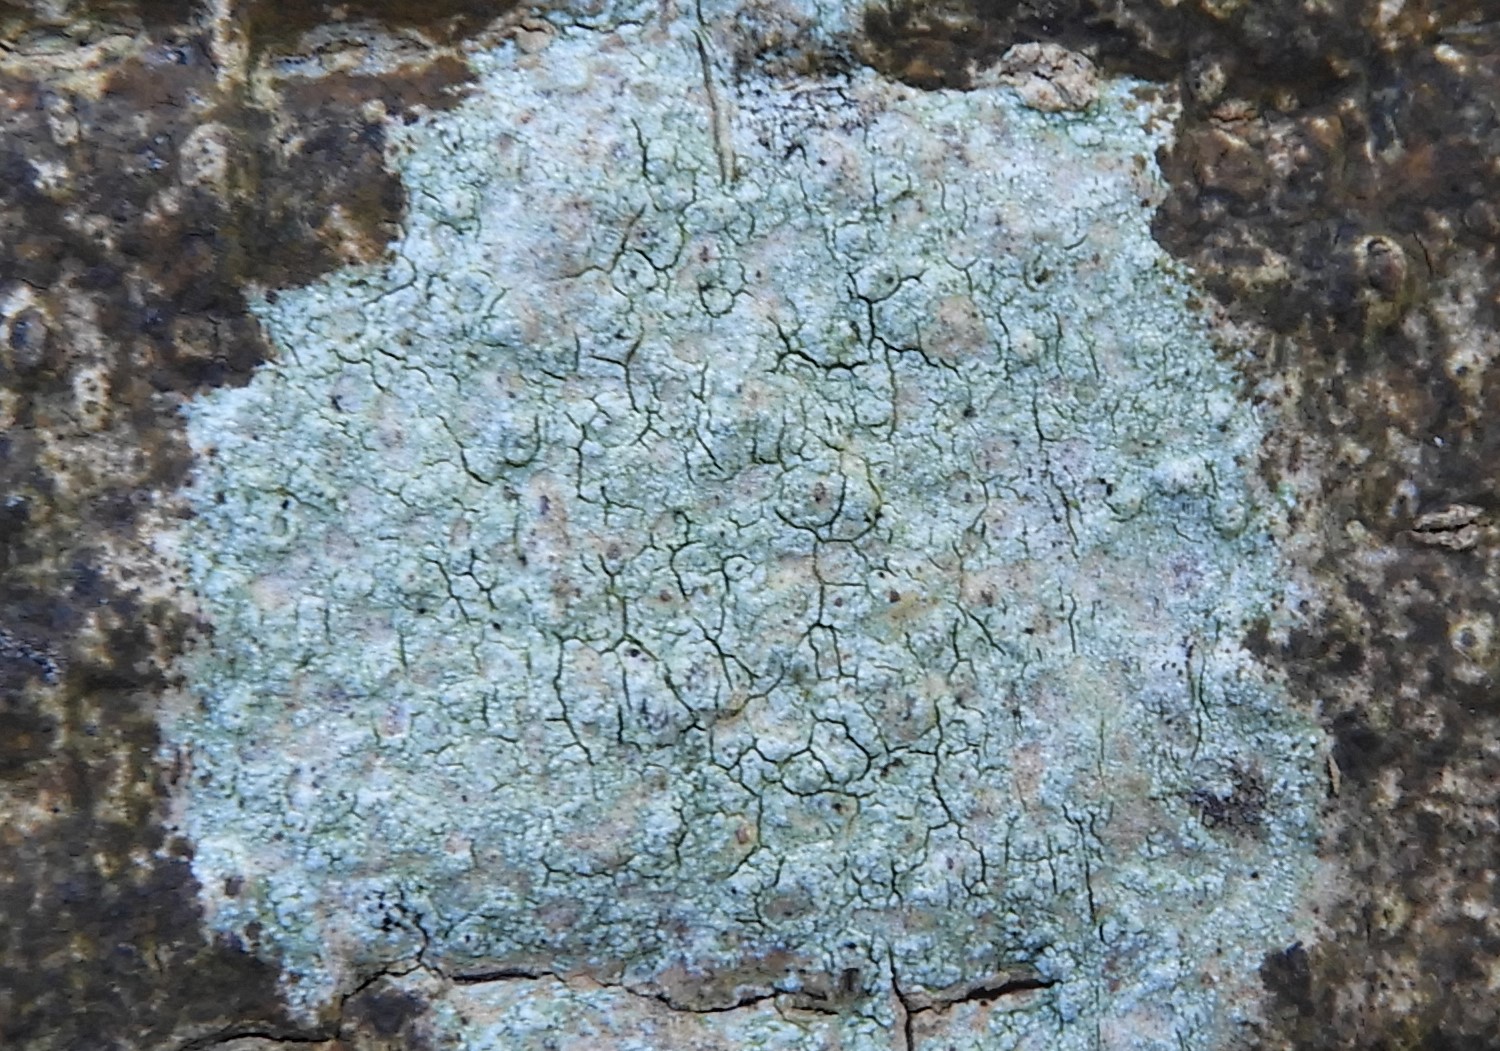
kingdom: Fungi
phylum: Ascomycota
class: Lecanoromycetes
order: Lecanorales
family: Parmeliaceae
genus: Lichen
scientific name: Lichen
